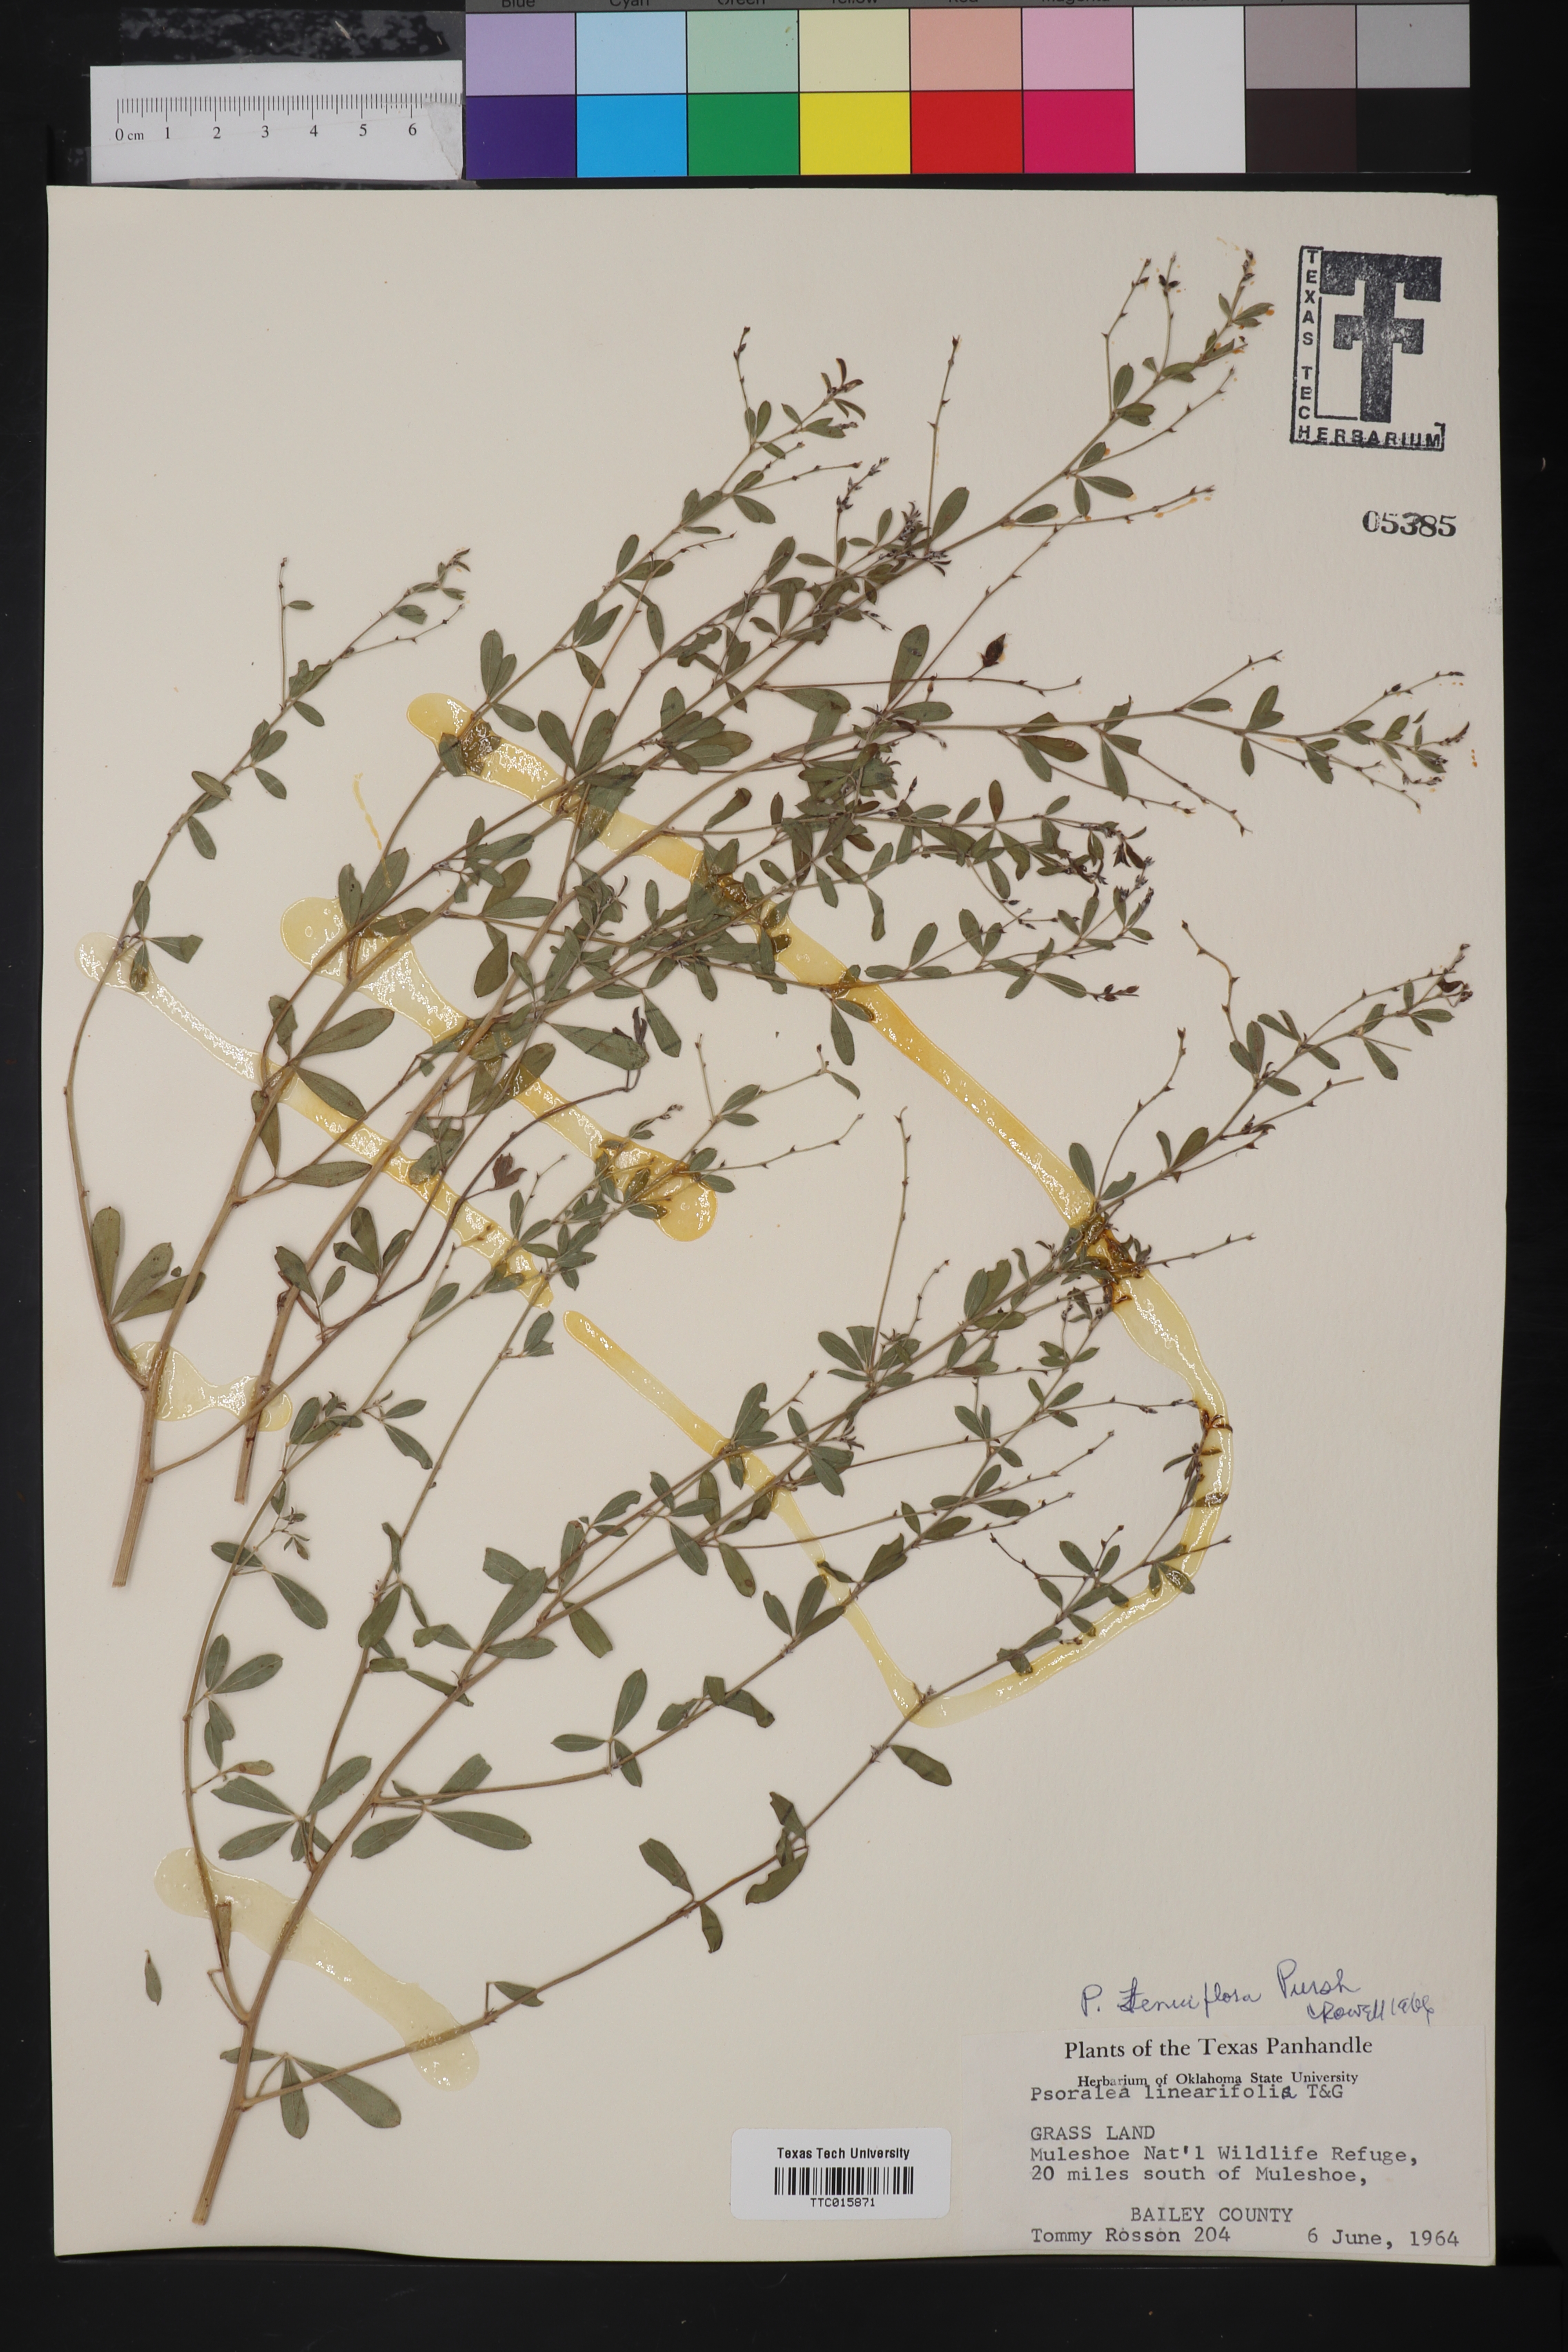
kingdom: Plantae
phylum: Tracheophyta
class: Magnoliopsida
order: Fabales
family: Fabaceae
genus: Pediomelum
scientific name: Pediomelum tenuiflorum
